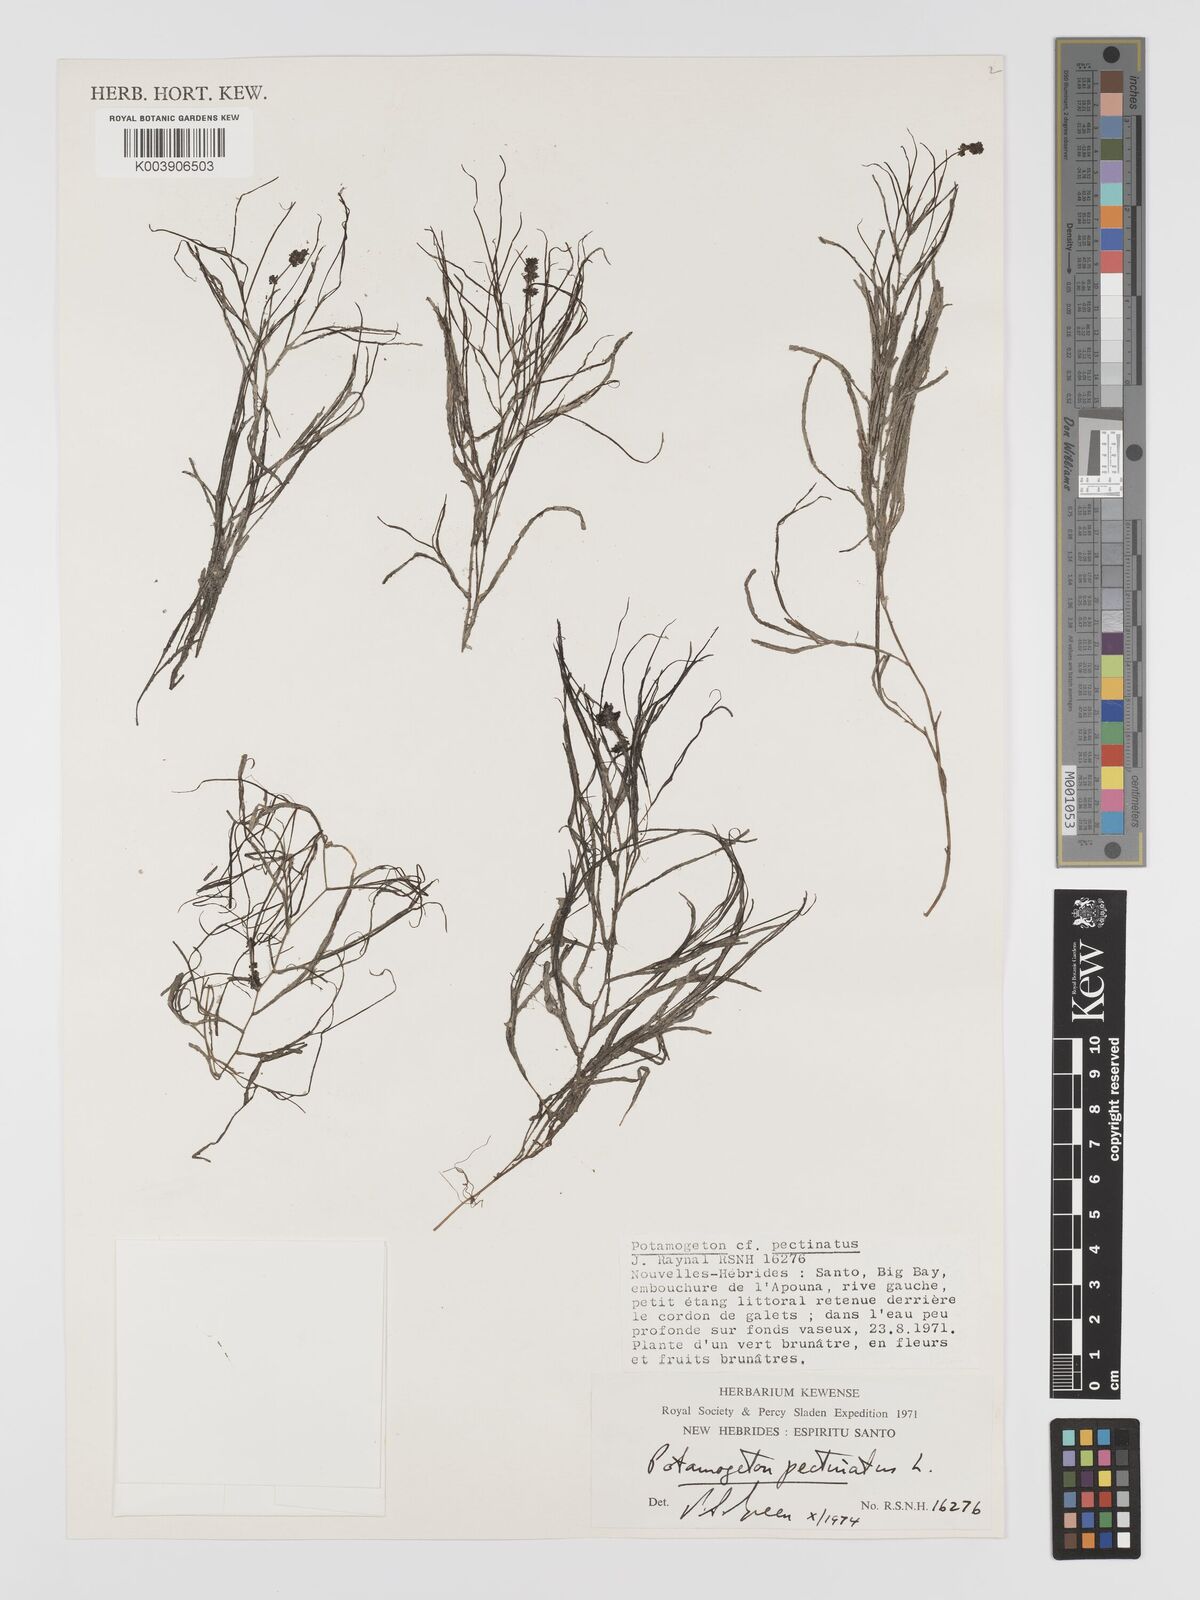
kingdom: Plantae
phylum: Tracheophyta
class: Liliopsida
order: Alismatales
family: Potamogetonaceae
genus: Stuckenia
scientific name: Stuckenia pectinata
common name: Sago pondweed
